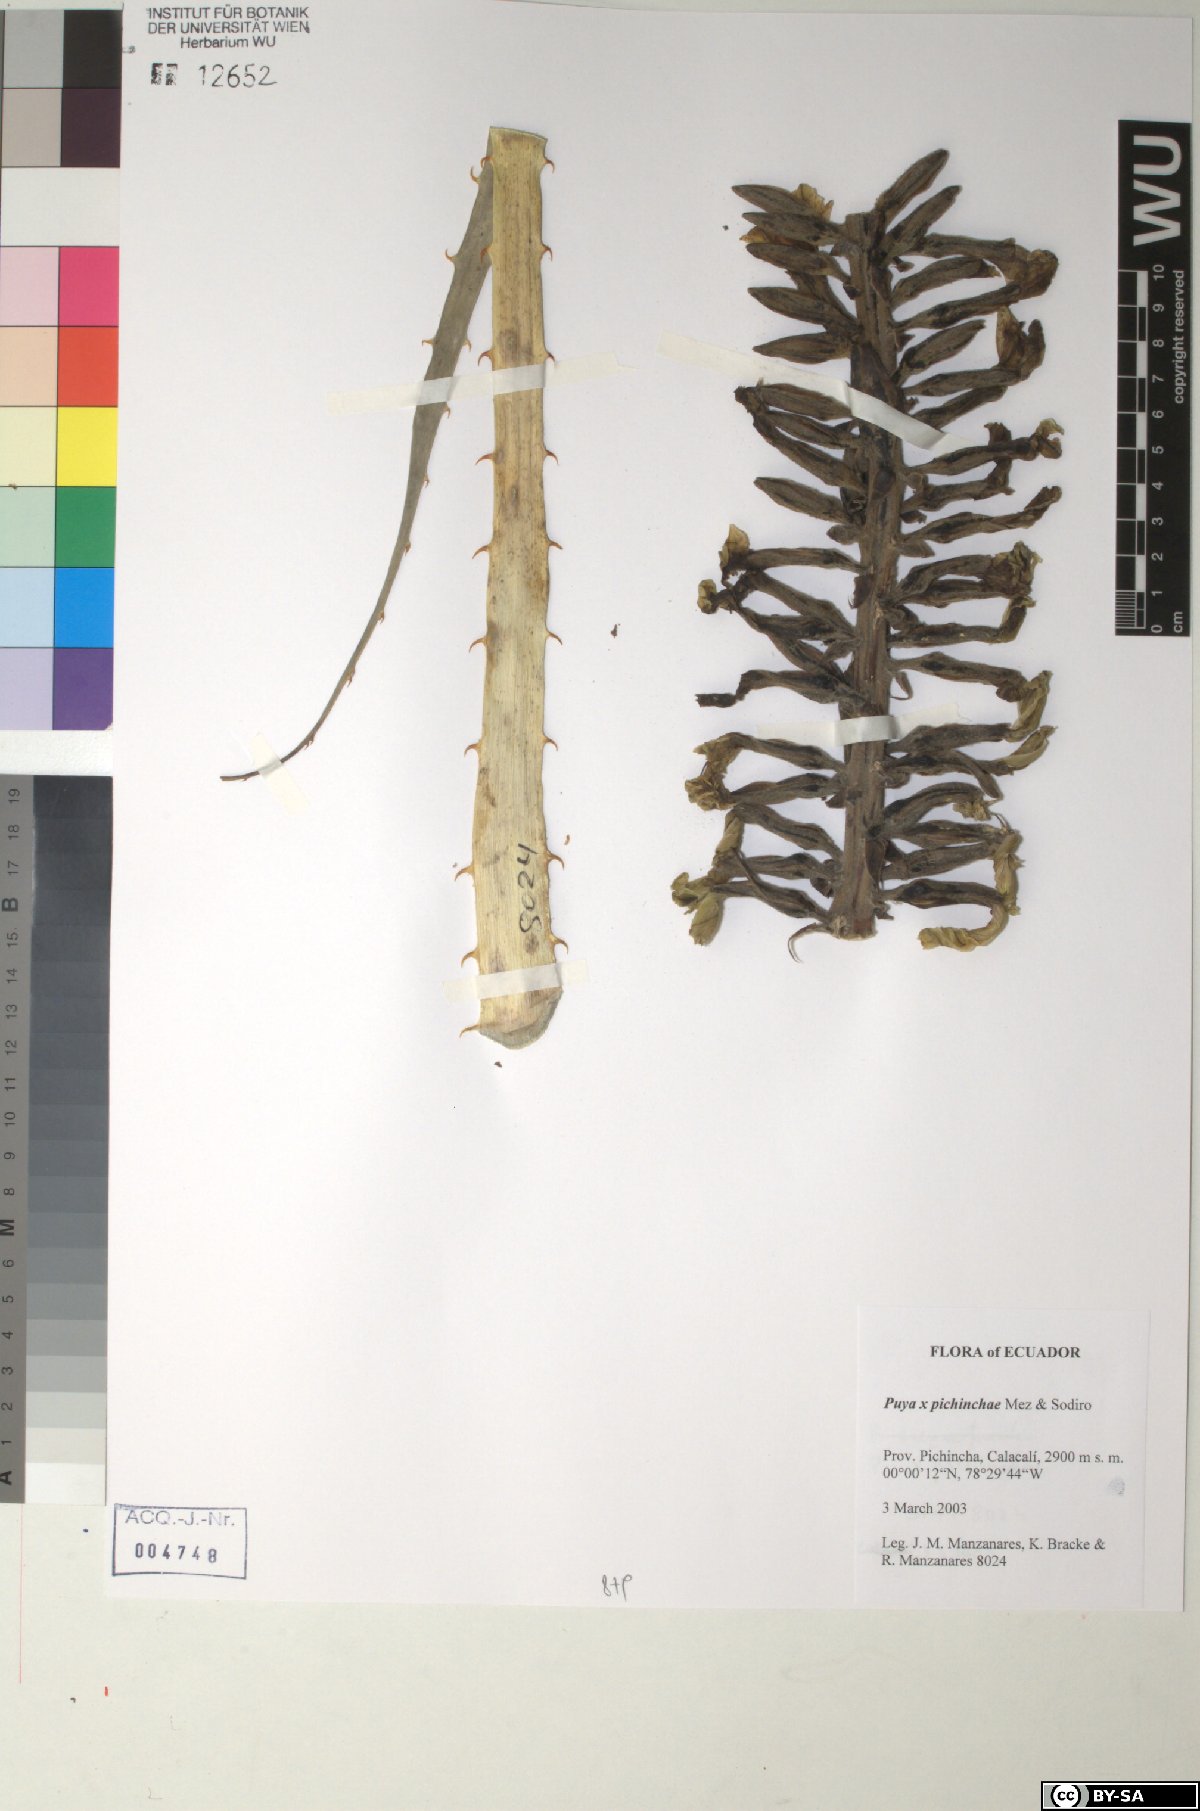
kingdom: Plantae
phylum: Tracheophyta
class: Liliopsida
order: Poales
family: Bromeliaceae
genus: Puya
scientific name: Puya pichinchae
